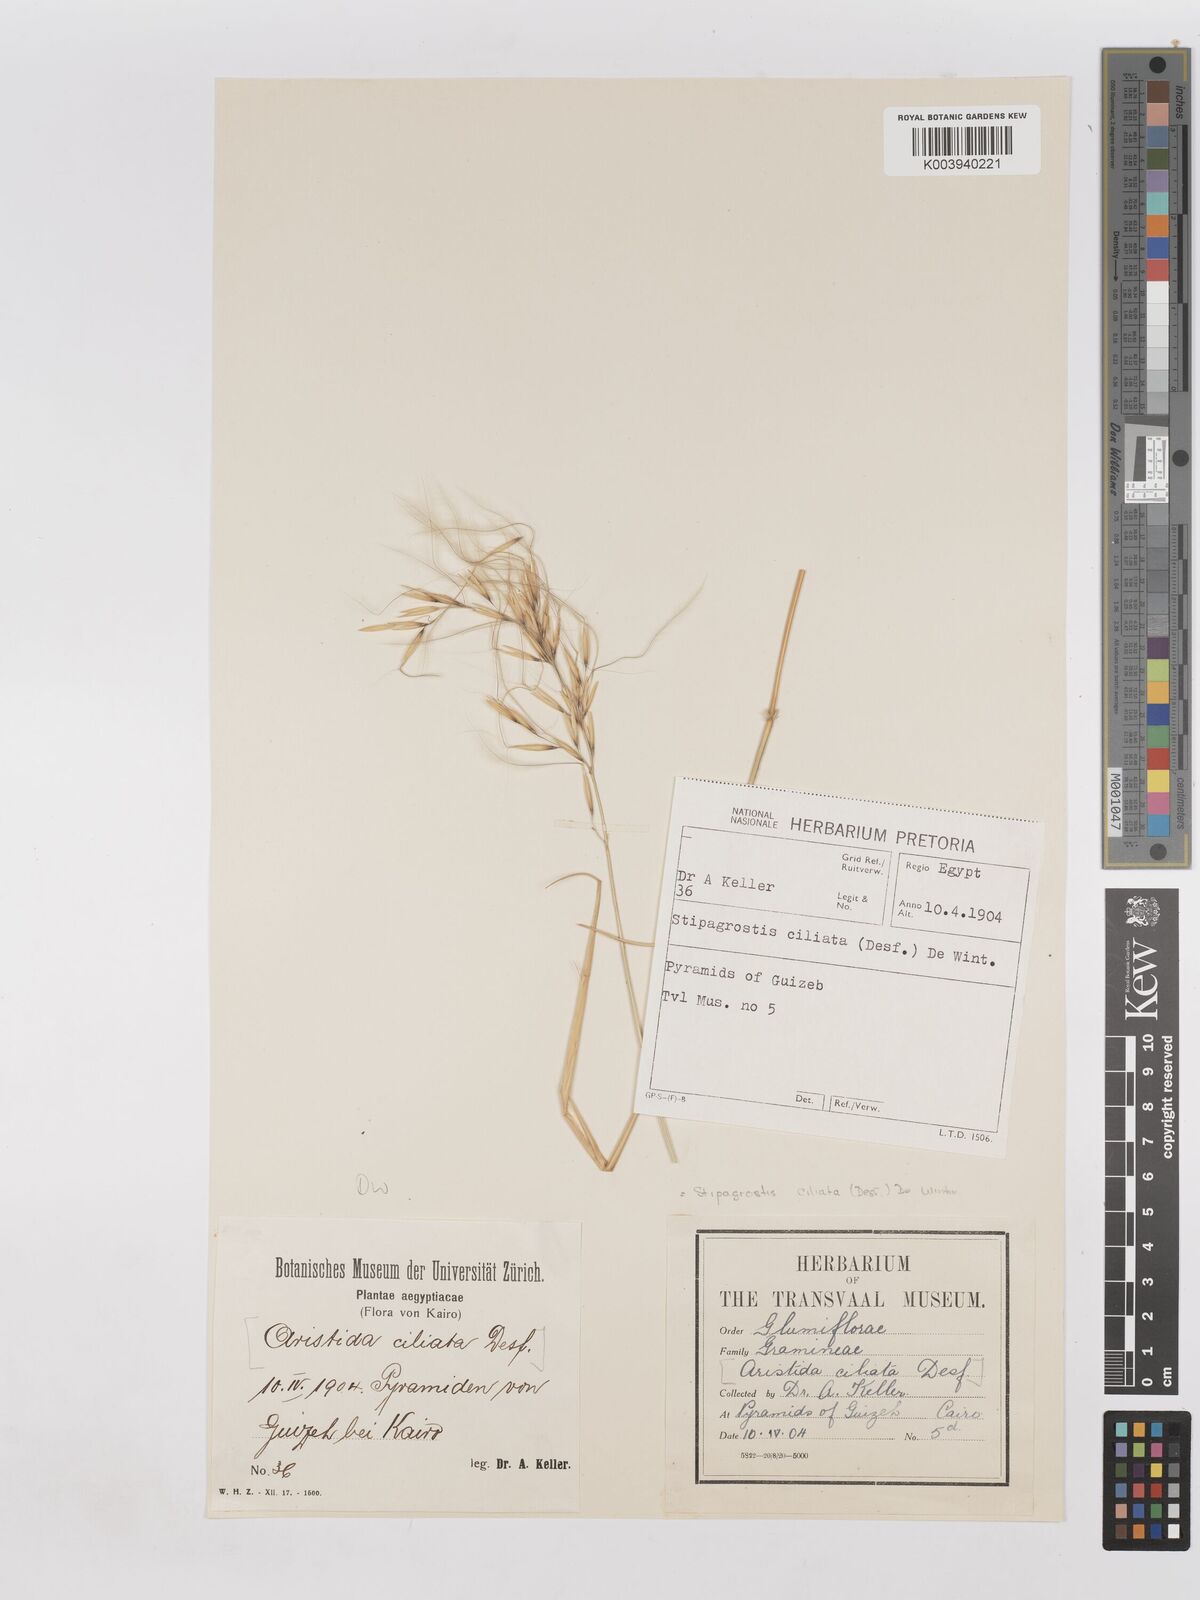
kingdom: Plantae
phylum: Tracheophyta
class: Liliopsida
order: Poales
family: Poaceae
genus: Stipagrostis
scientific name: Stipagrostis ciliata
